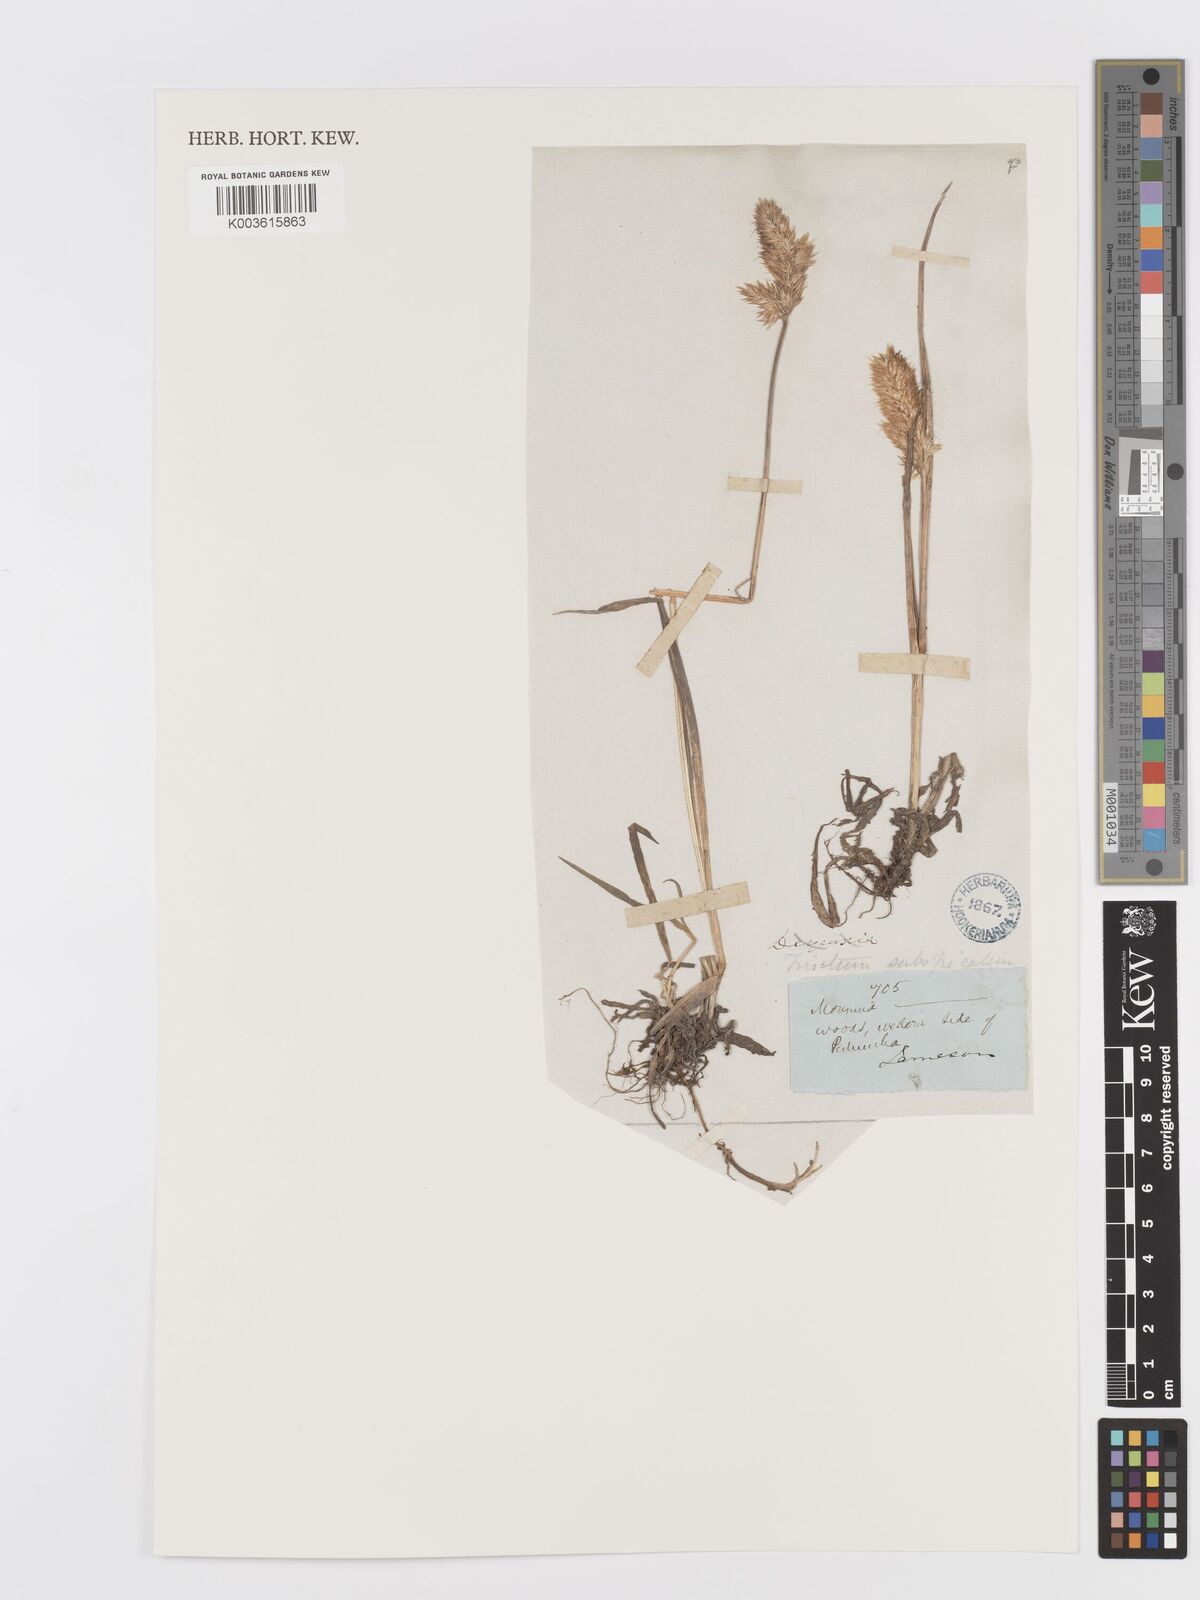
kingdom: Plantae
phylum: Tracheophyta
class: Liliopsida
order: Poales
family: Poaceae
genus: Koeleria
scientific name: Koeleria spicata
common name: Mountain trisetum
